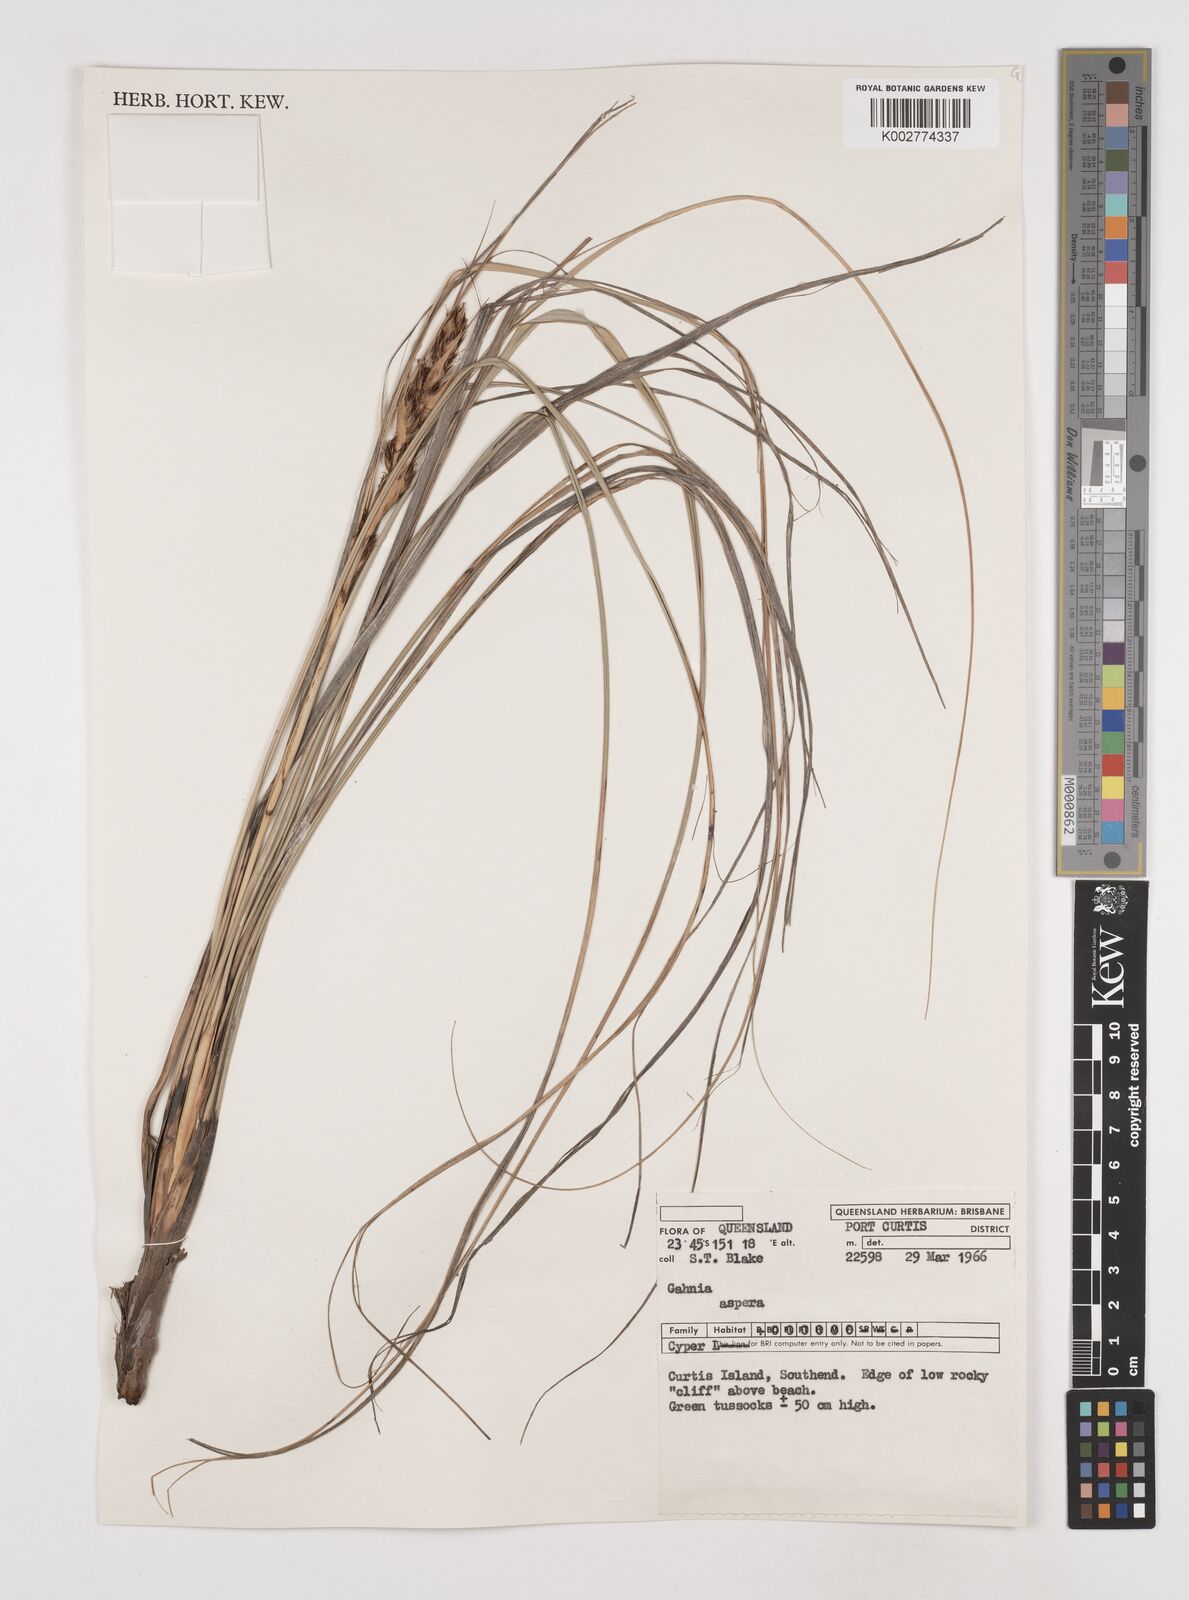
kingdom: Plantae
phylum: Tracheophyta
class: Liliopsida
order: Poales
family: Cyperaceae
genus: Gahnia
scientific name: Gahnia aspera
